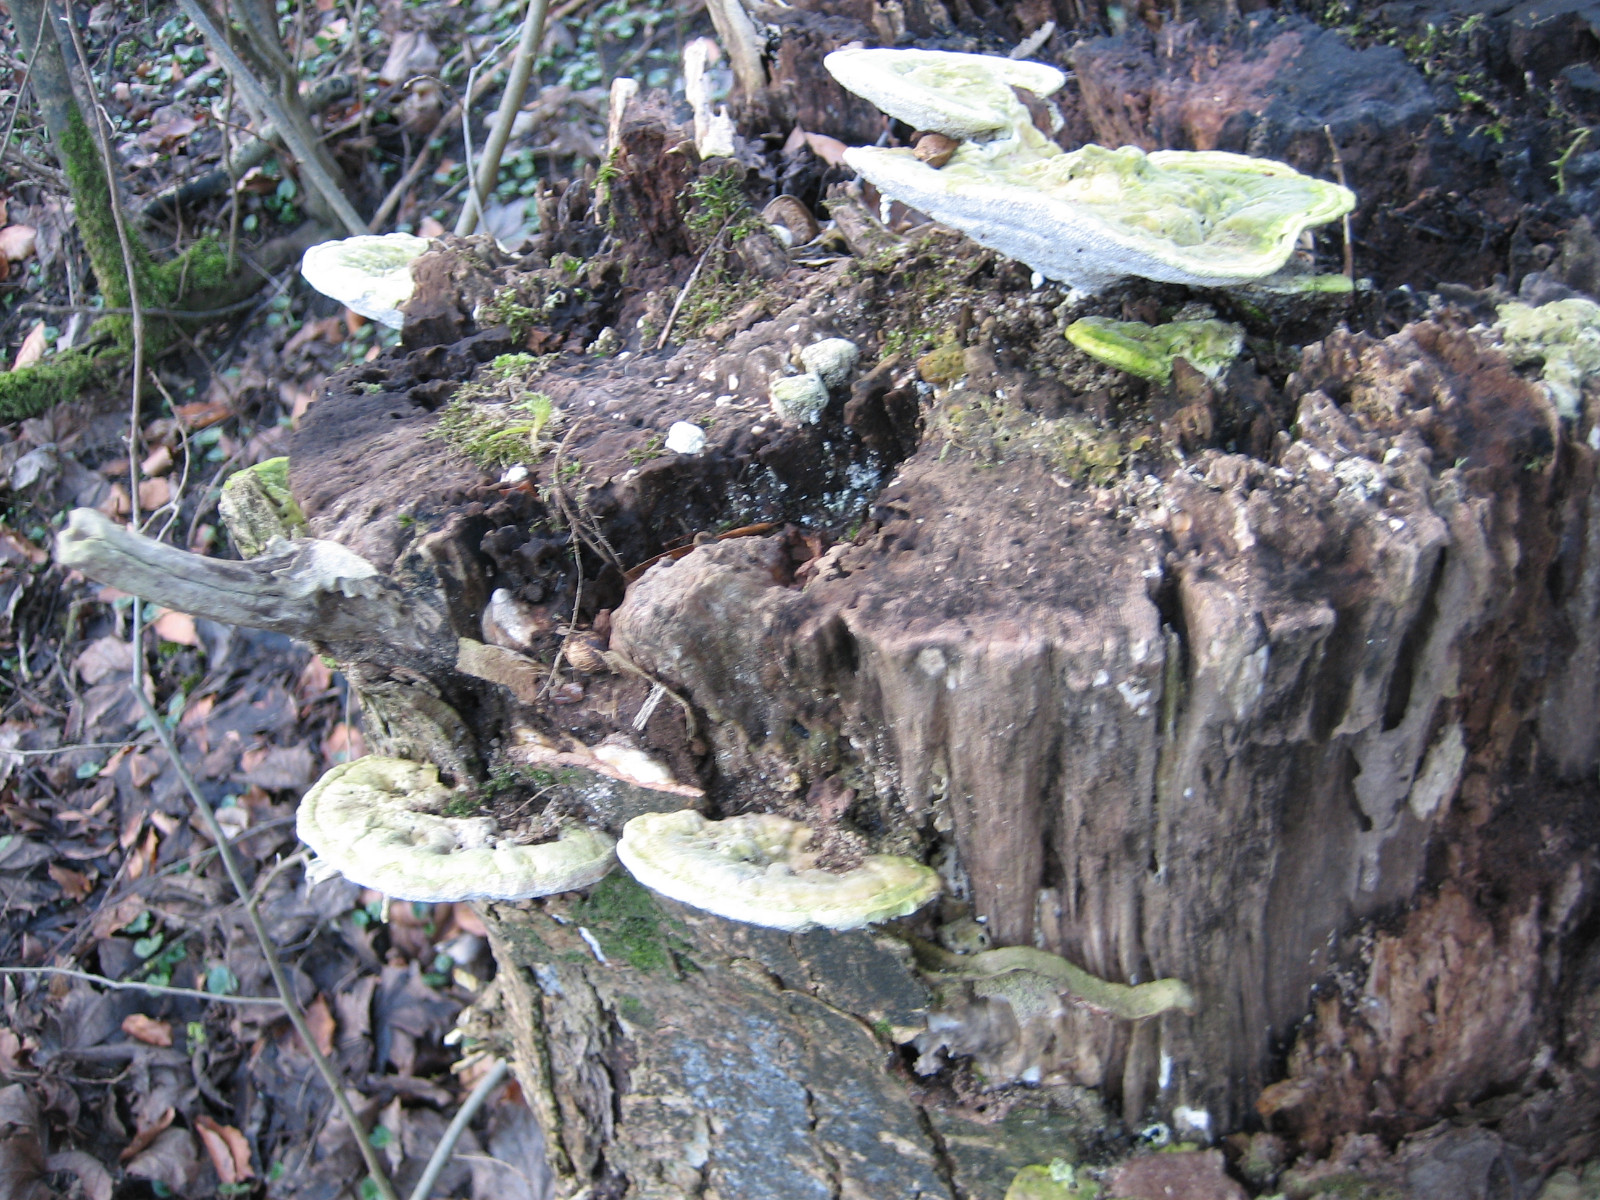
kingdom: Fungi
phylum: Basidiomycota
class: Agaricomycetes
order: Polyporales
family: Polyporaceae
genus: Trametes
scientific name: Trametes hirsuta
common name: håret læderporesvamp
